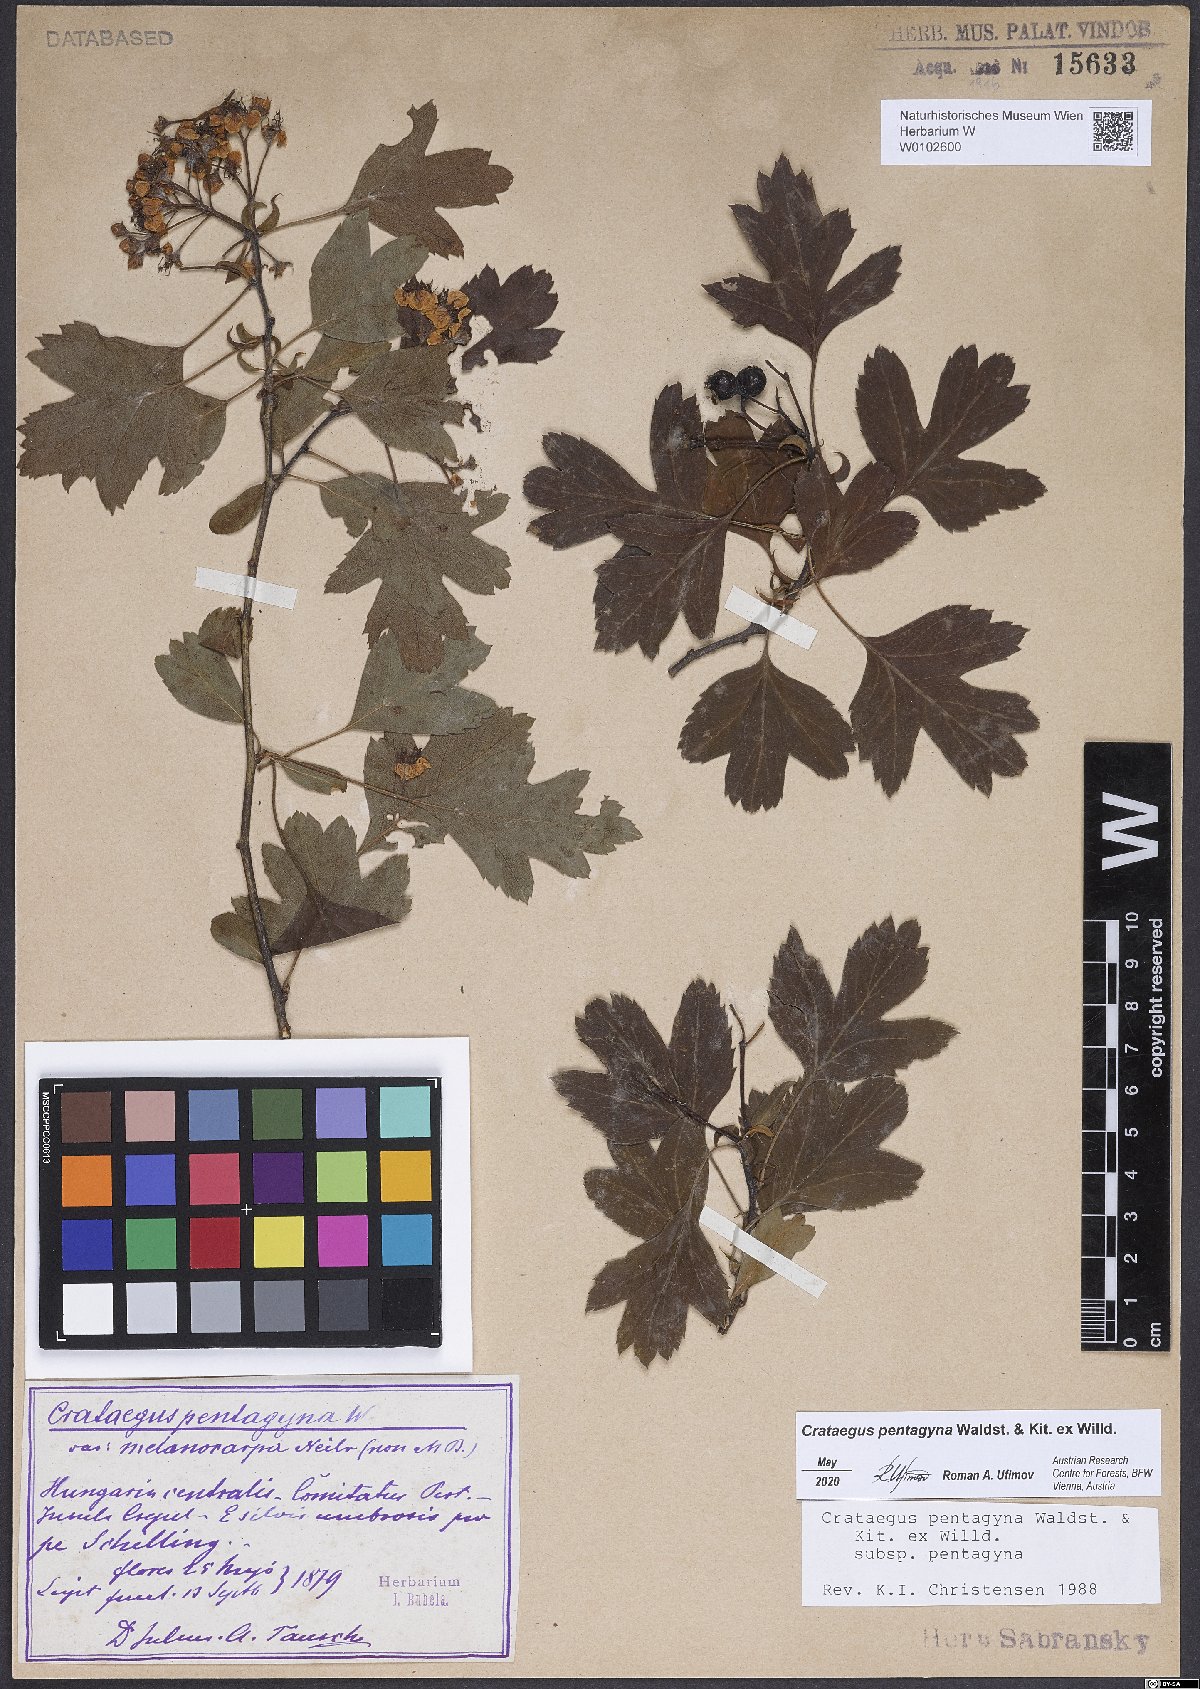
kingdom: Plantae
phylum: Tracheophyta
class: Magnoliopsida
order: Rosales
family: Rosaceae
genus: Crataegus
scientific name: Crataegus pentagyna
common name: Small-flowered black hawthorn
